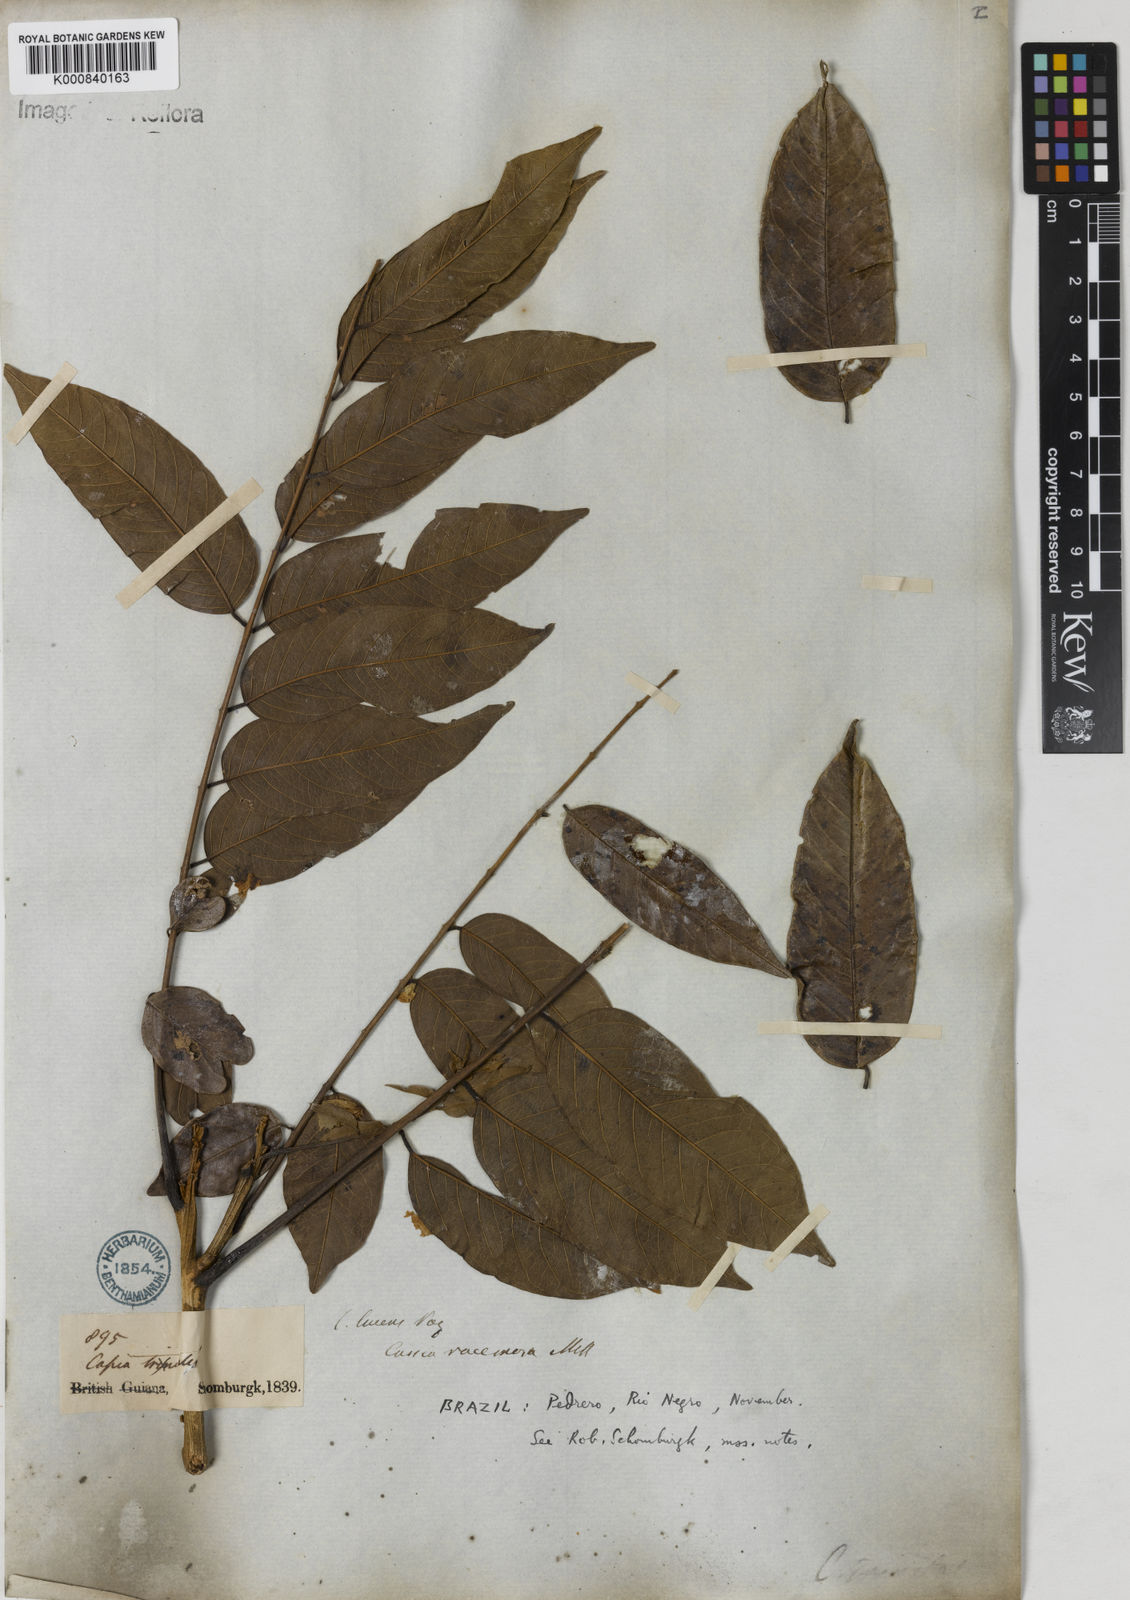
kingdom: Plantae
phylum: Tracheophyta
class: Magnoliopsida
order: Fabales
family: Fabaceae
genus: Senna
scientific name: Senna silvestris
